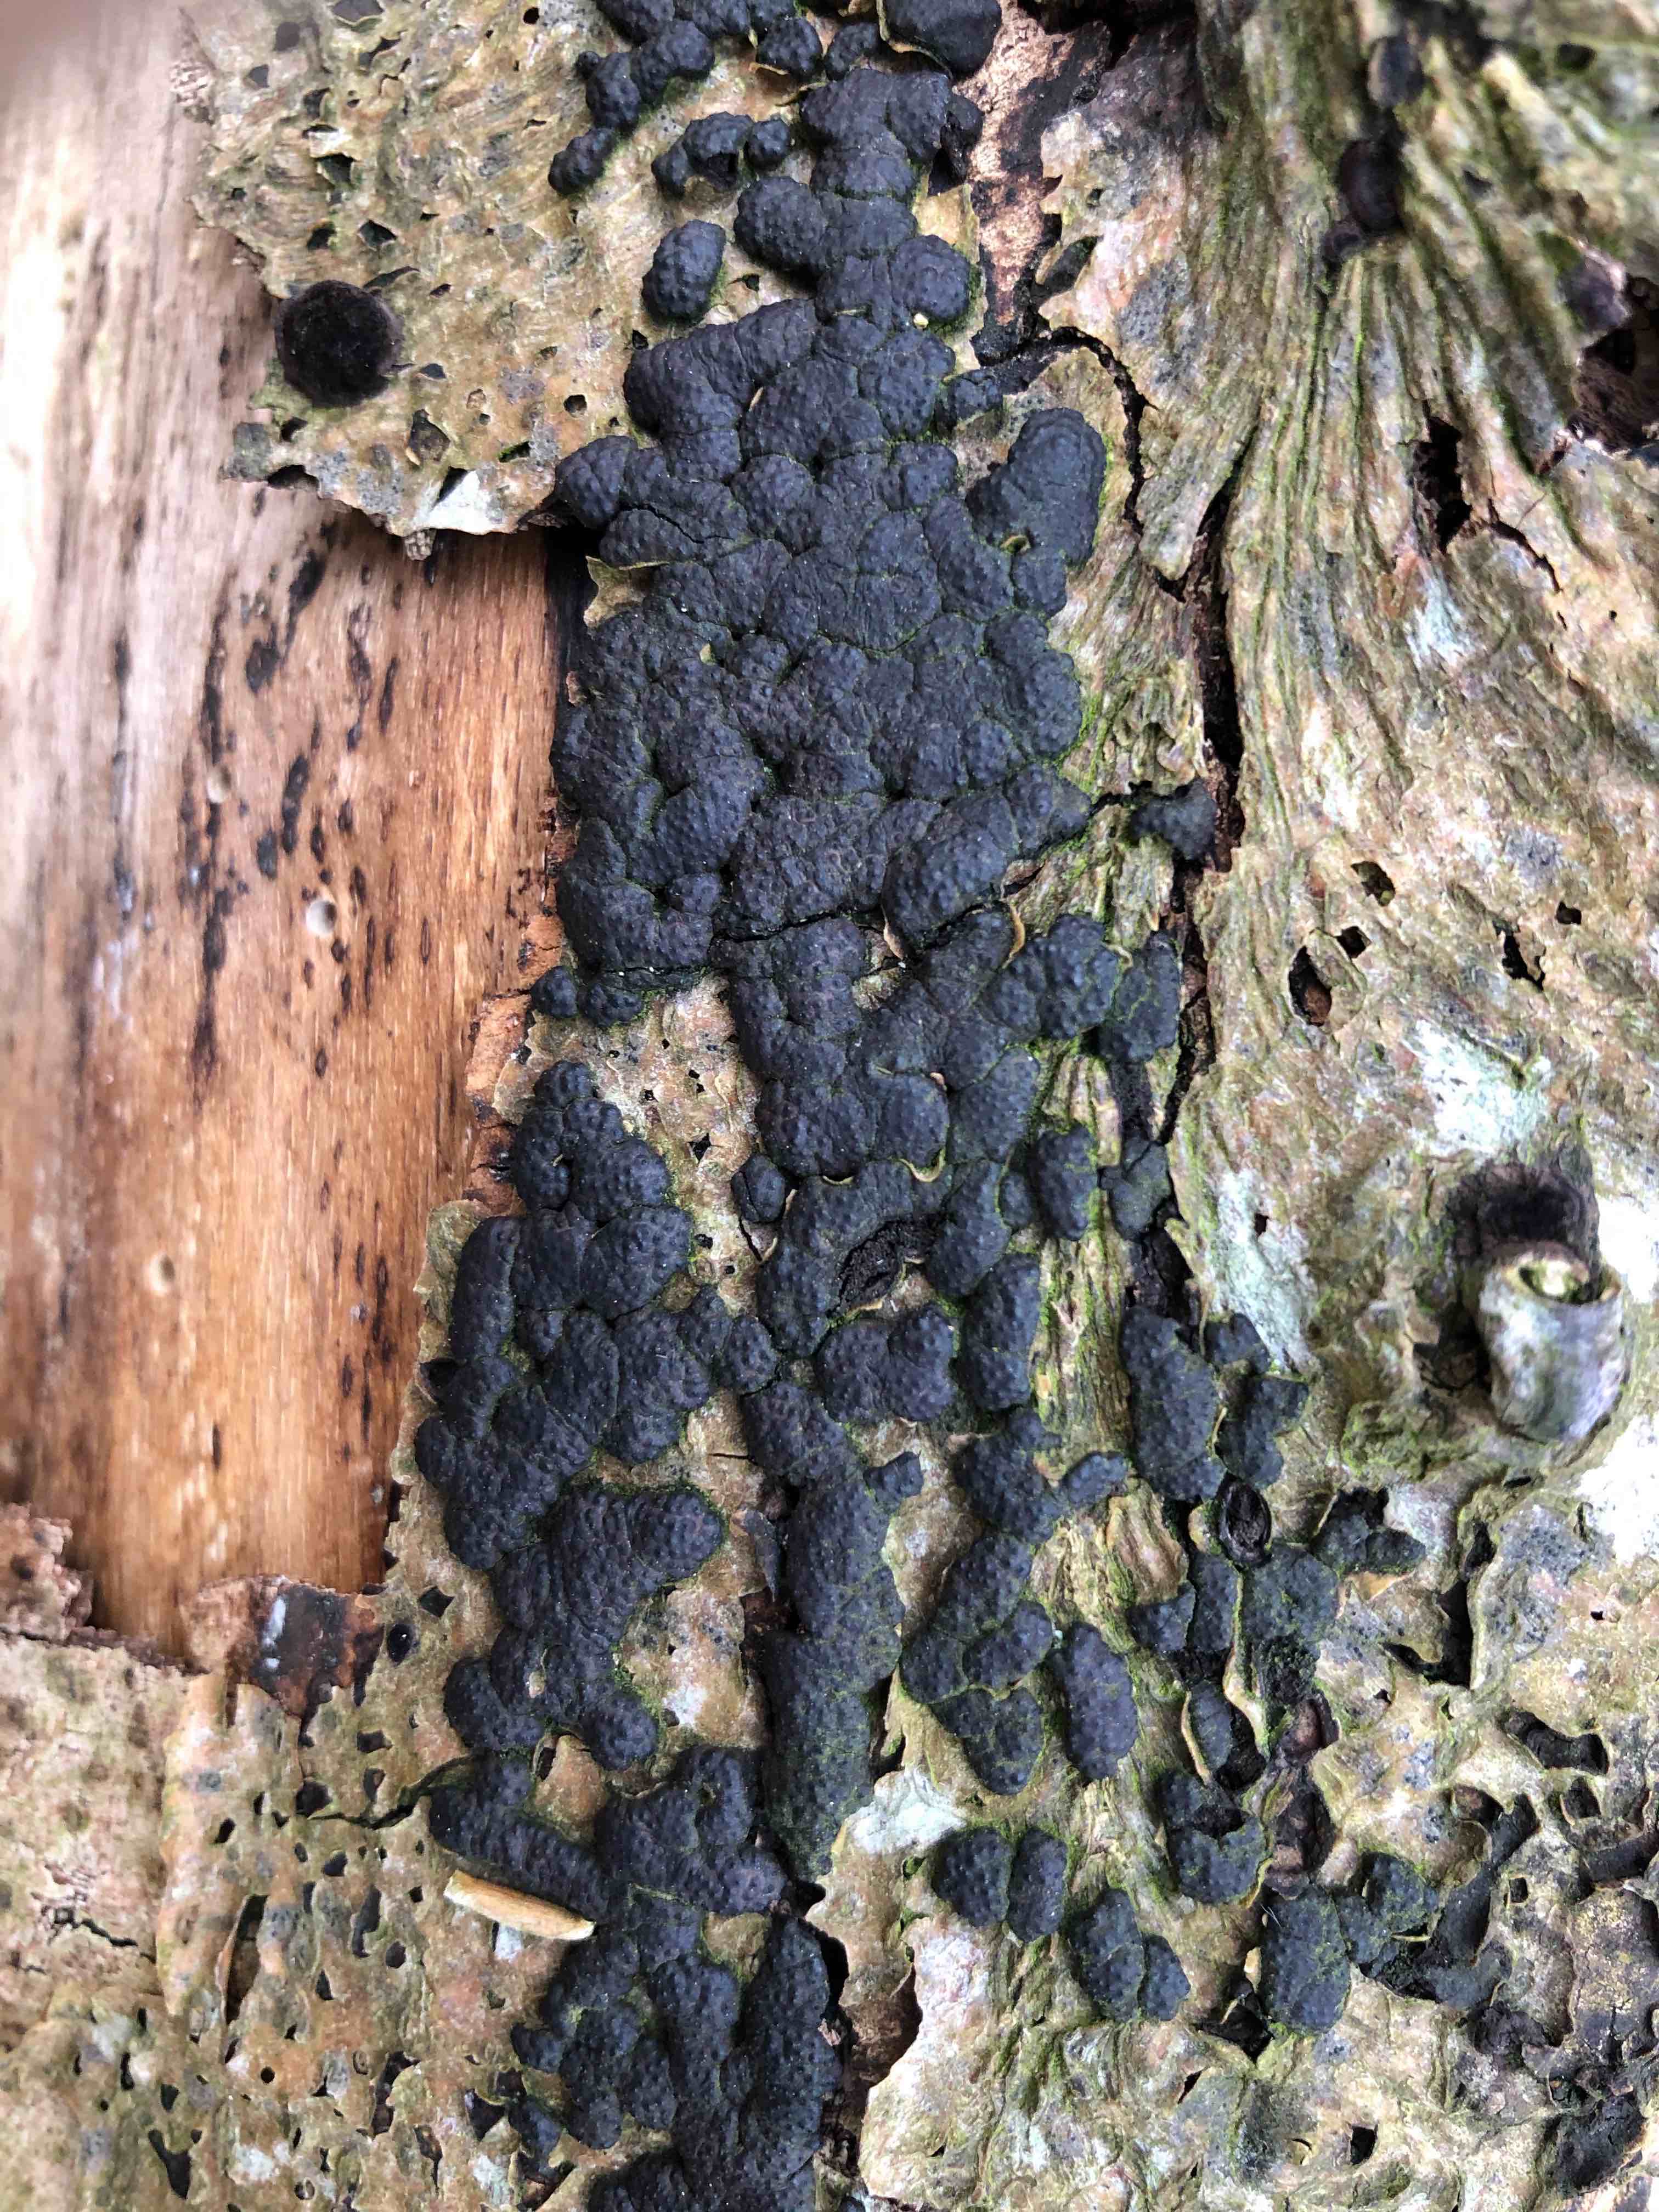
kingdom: Fungi
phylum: Ascomycota
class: Sordariomycetes
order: Xylariales
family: Hypoxylaceae
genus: Jackrogersella
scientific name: Jackrogersella cohaerens
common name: sammenflydende kulbær
